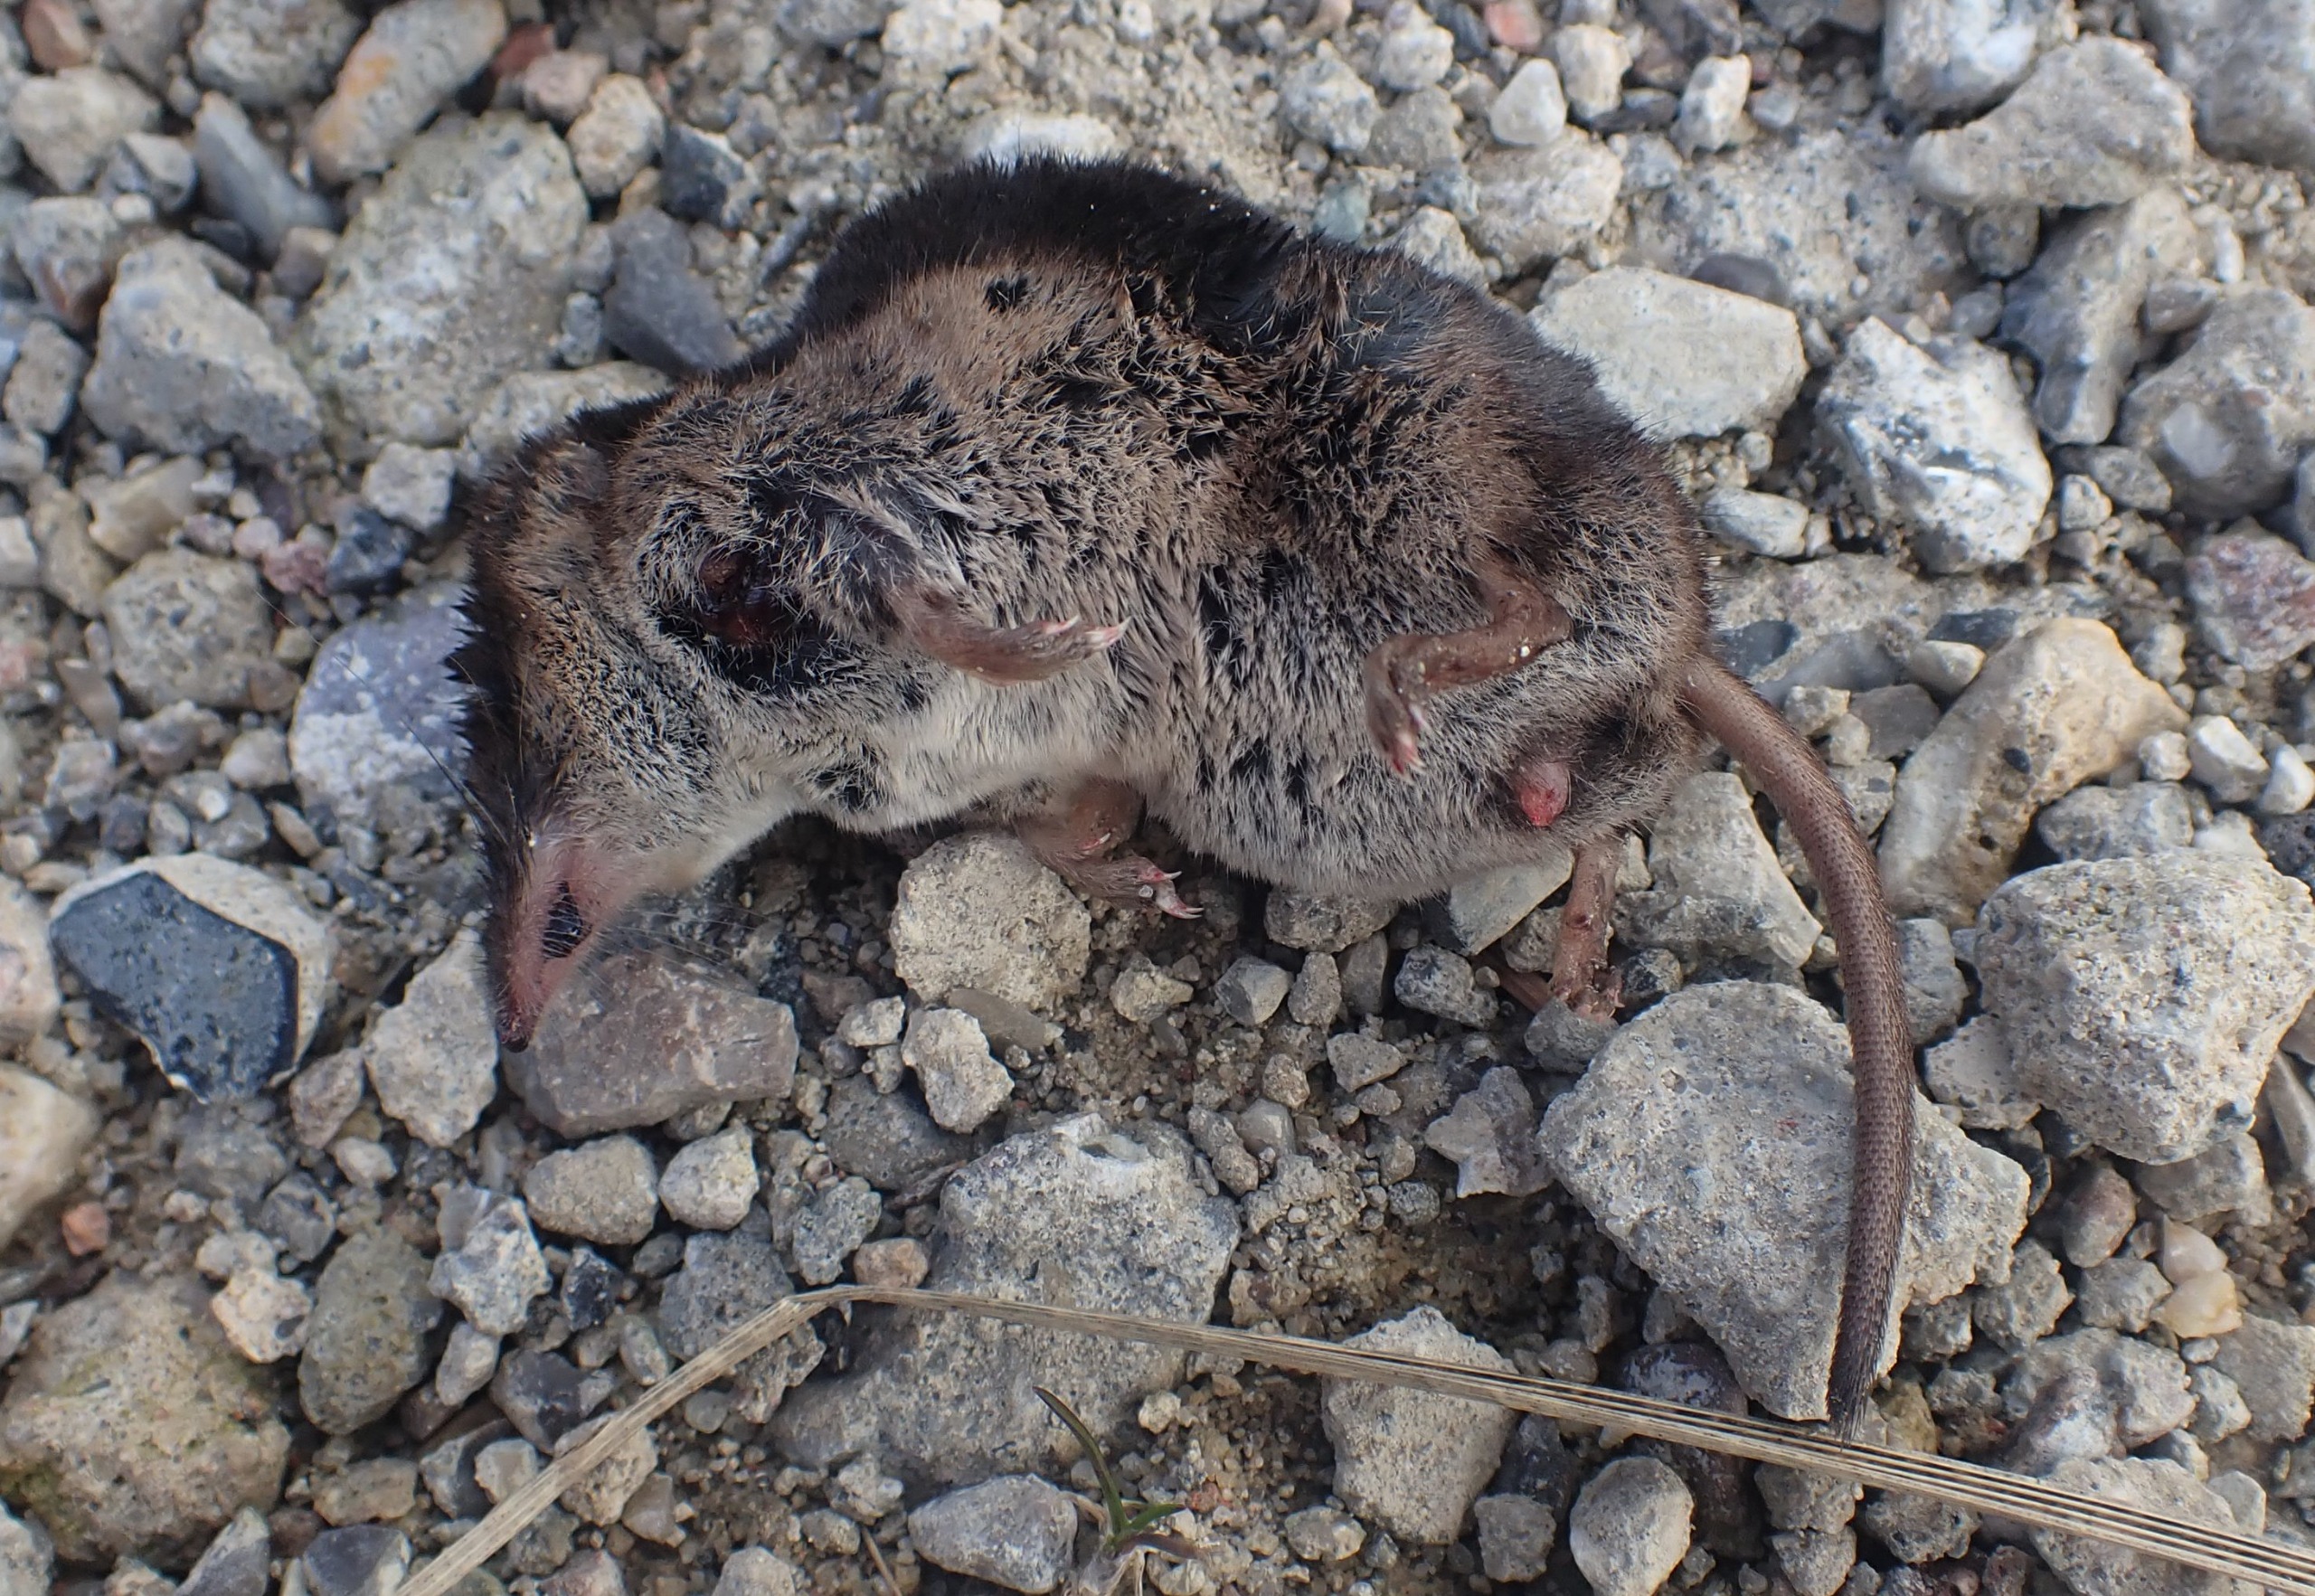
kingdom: Animalia
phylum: Chordata
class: Mammalia
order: Soricomorpha
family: Soricidae
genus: Sorex
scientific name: Sorex araneus
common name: Almindelig spidsmus
